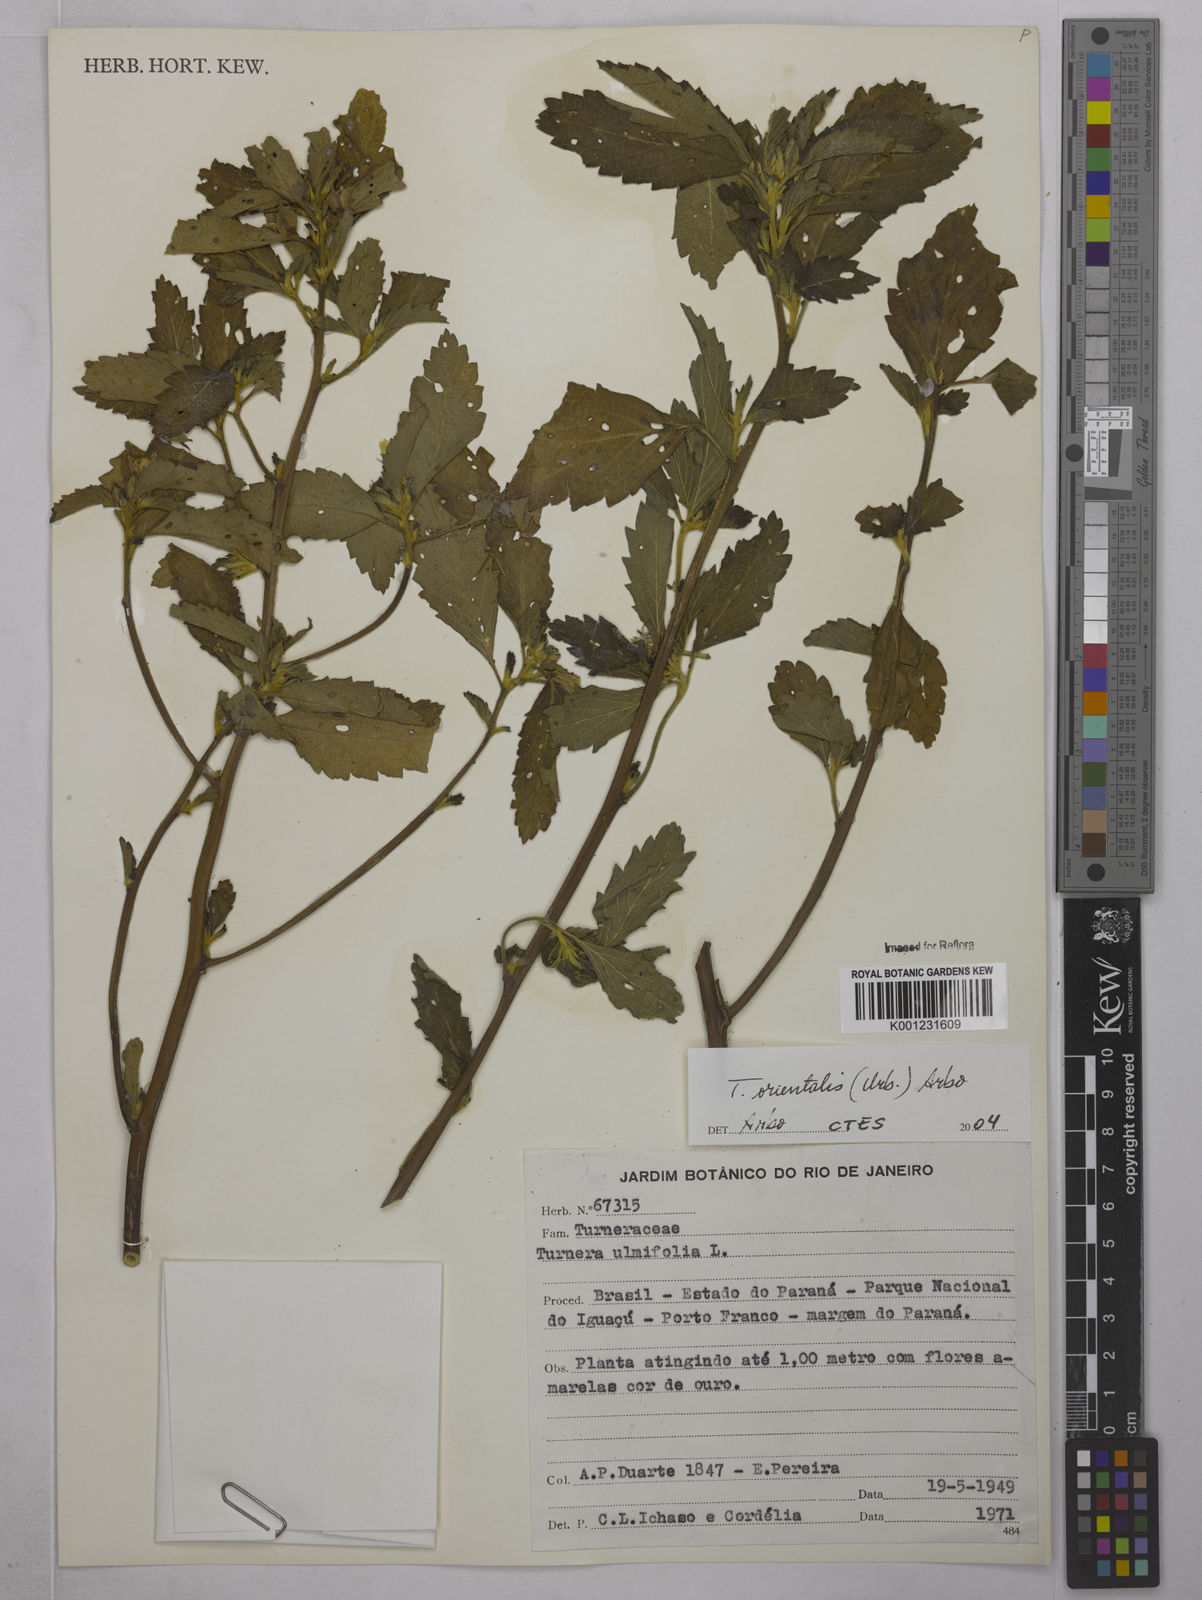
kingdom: Plantae
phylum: Tracheophyta
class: Magnoliopsida
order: Malpighiales
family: Turneraceae
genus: Turnera
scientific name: Turnera orientalis
